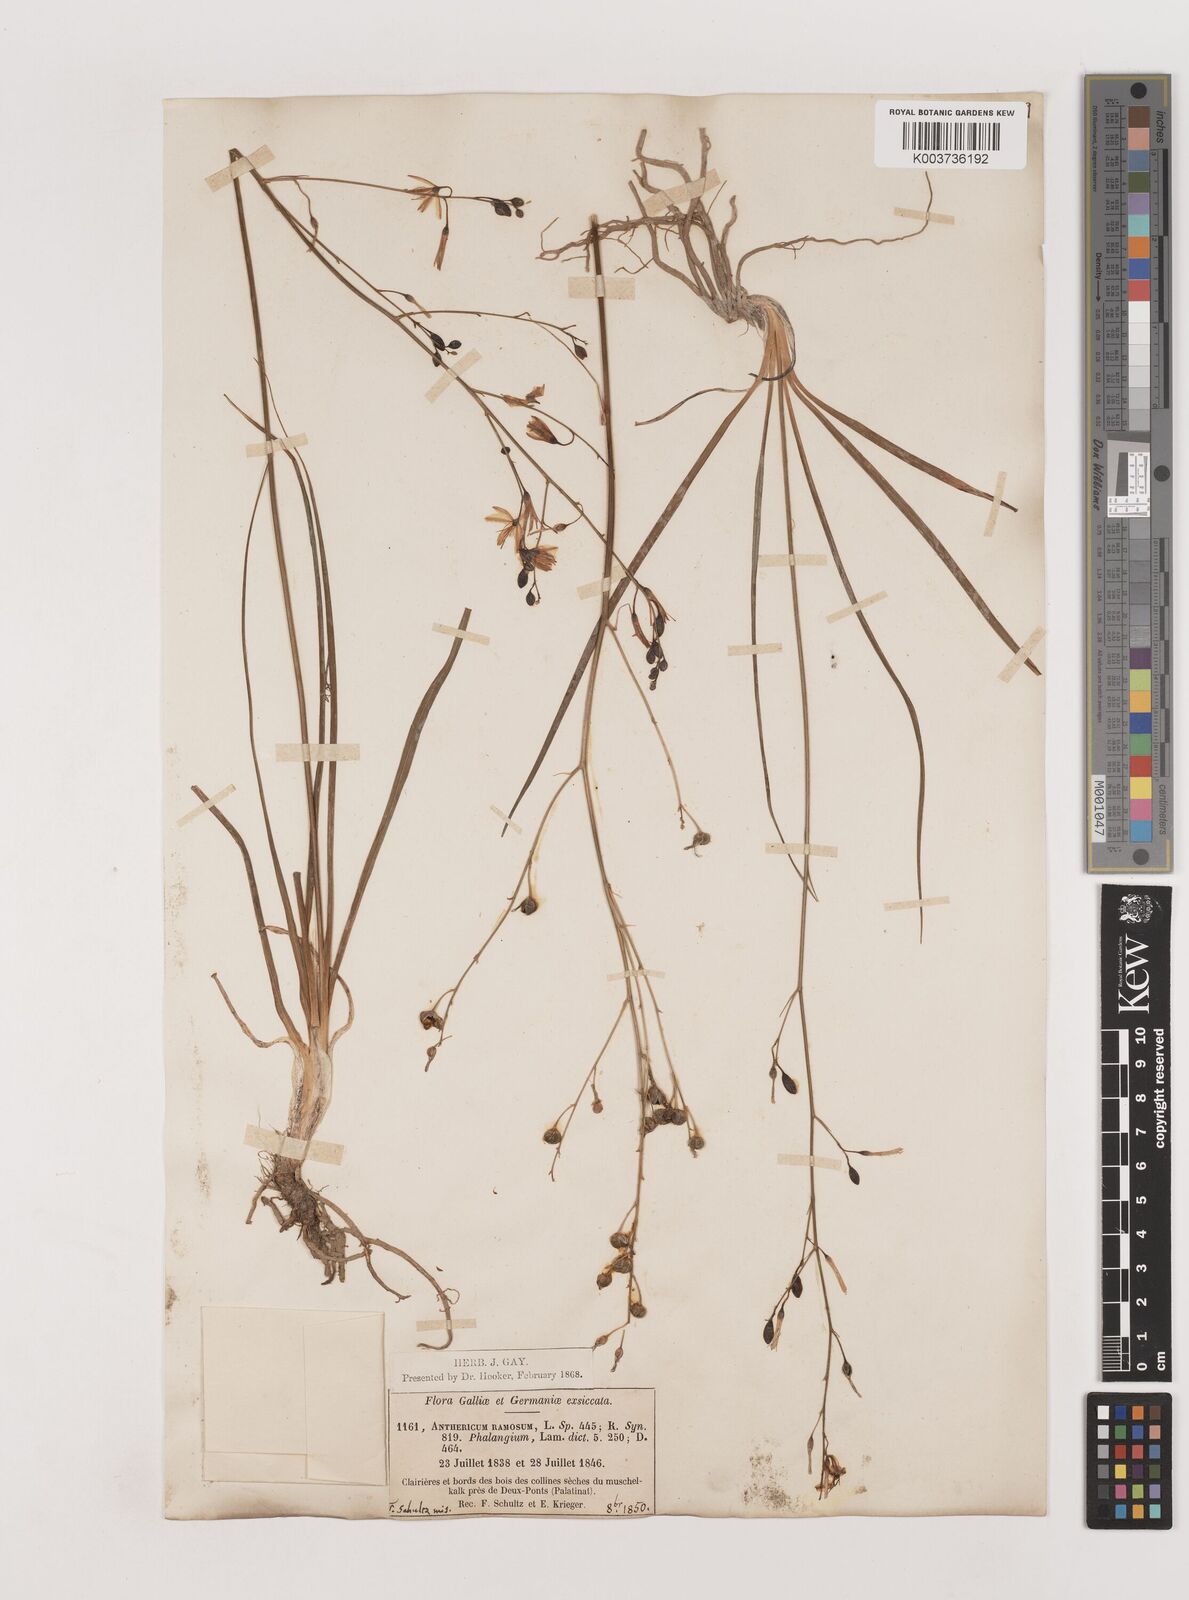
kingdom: Plantae
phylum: Tracheophyta
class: Liliopsida
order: Asparagales
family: Asparagaceae
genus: Anthericum
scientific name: Anthericum ramosum
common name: Branched st. bernard's-lily
